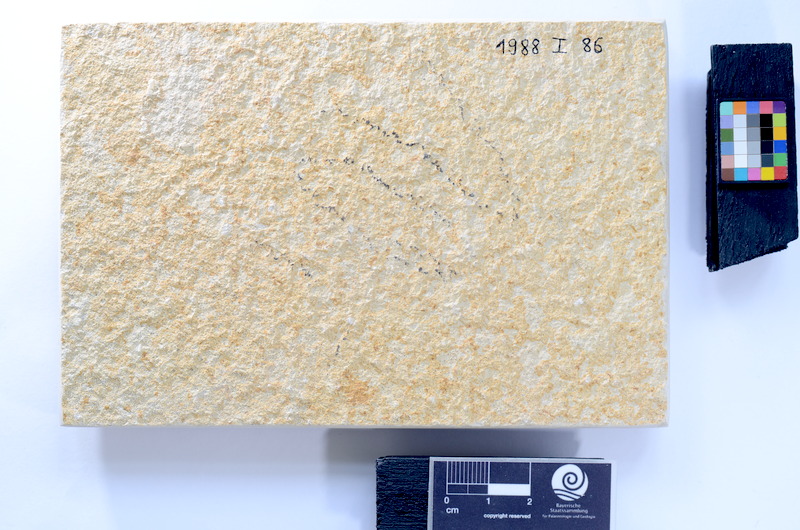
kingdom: Animalia
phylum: Chordata
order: Salmoniformes
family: Orthogonikleithridae
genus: Leptolepides
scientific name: Leptolepides sprattiformis
